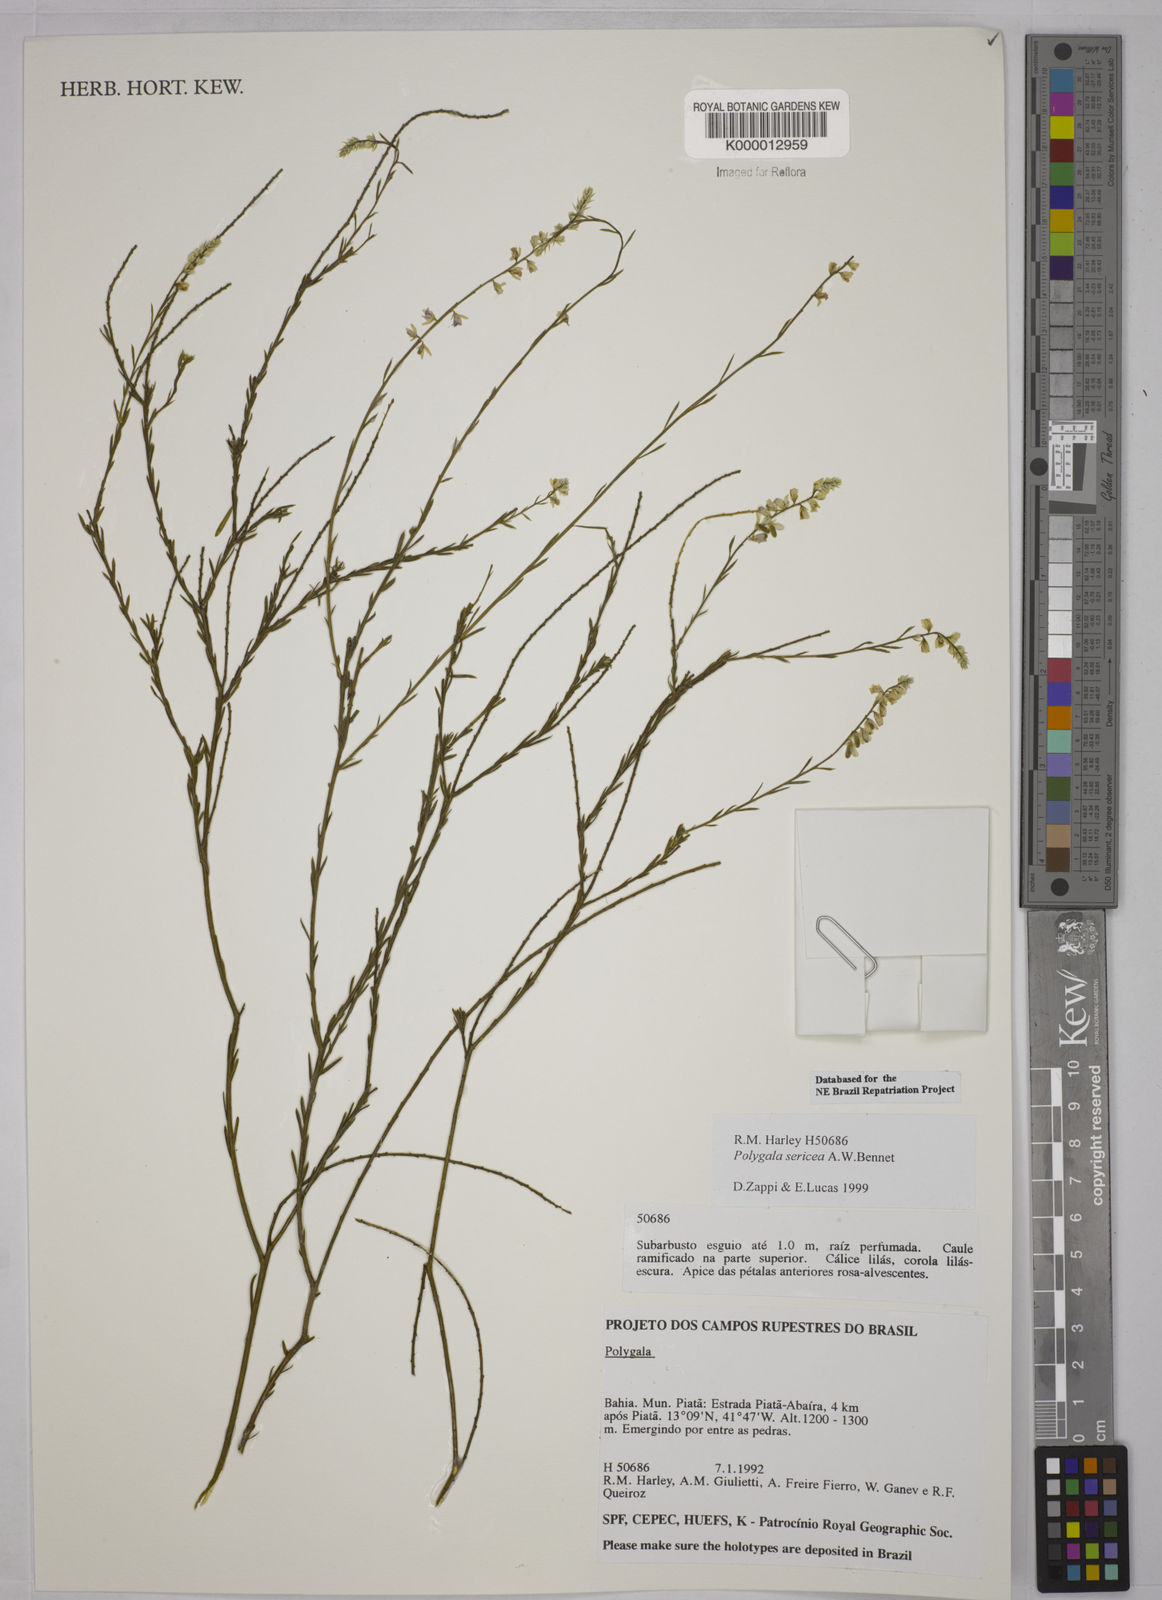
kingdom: Plantae
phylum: Tracheophyta
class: Magnoliopsida
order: Fabales
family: Polygalaceae
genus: Polygala
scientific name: Polygala sericea
